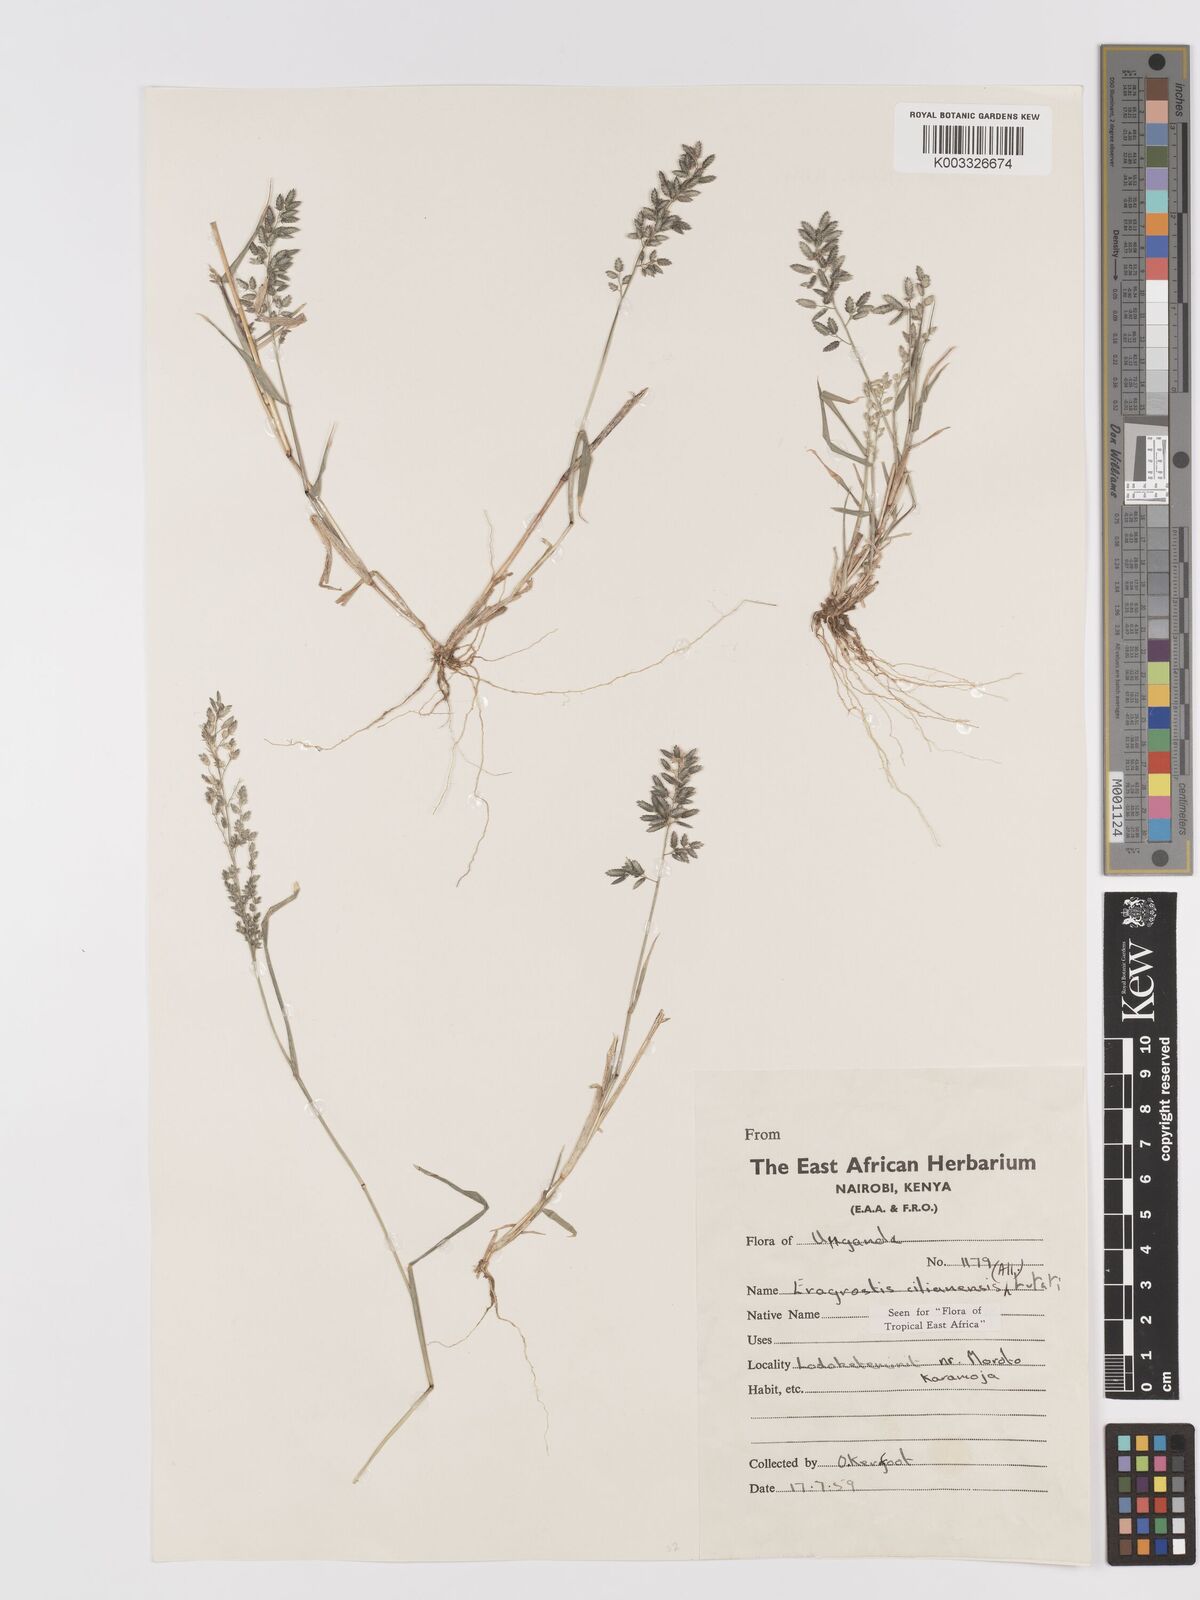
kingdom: Plantae
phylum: Tracheophyta
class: Liliopsida
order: Poales
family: Poaceae
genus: Eragrostis
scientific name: Eragrostis cilianensis
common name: Stinkgrass
